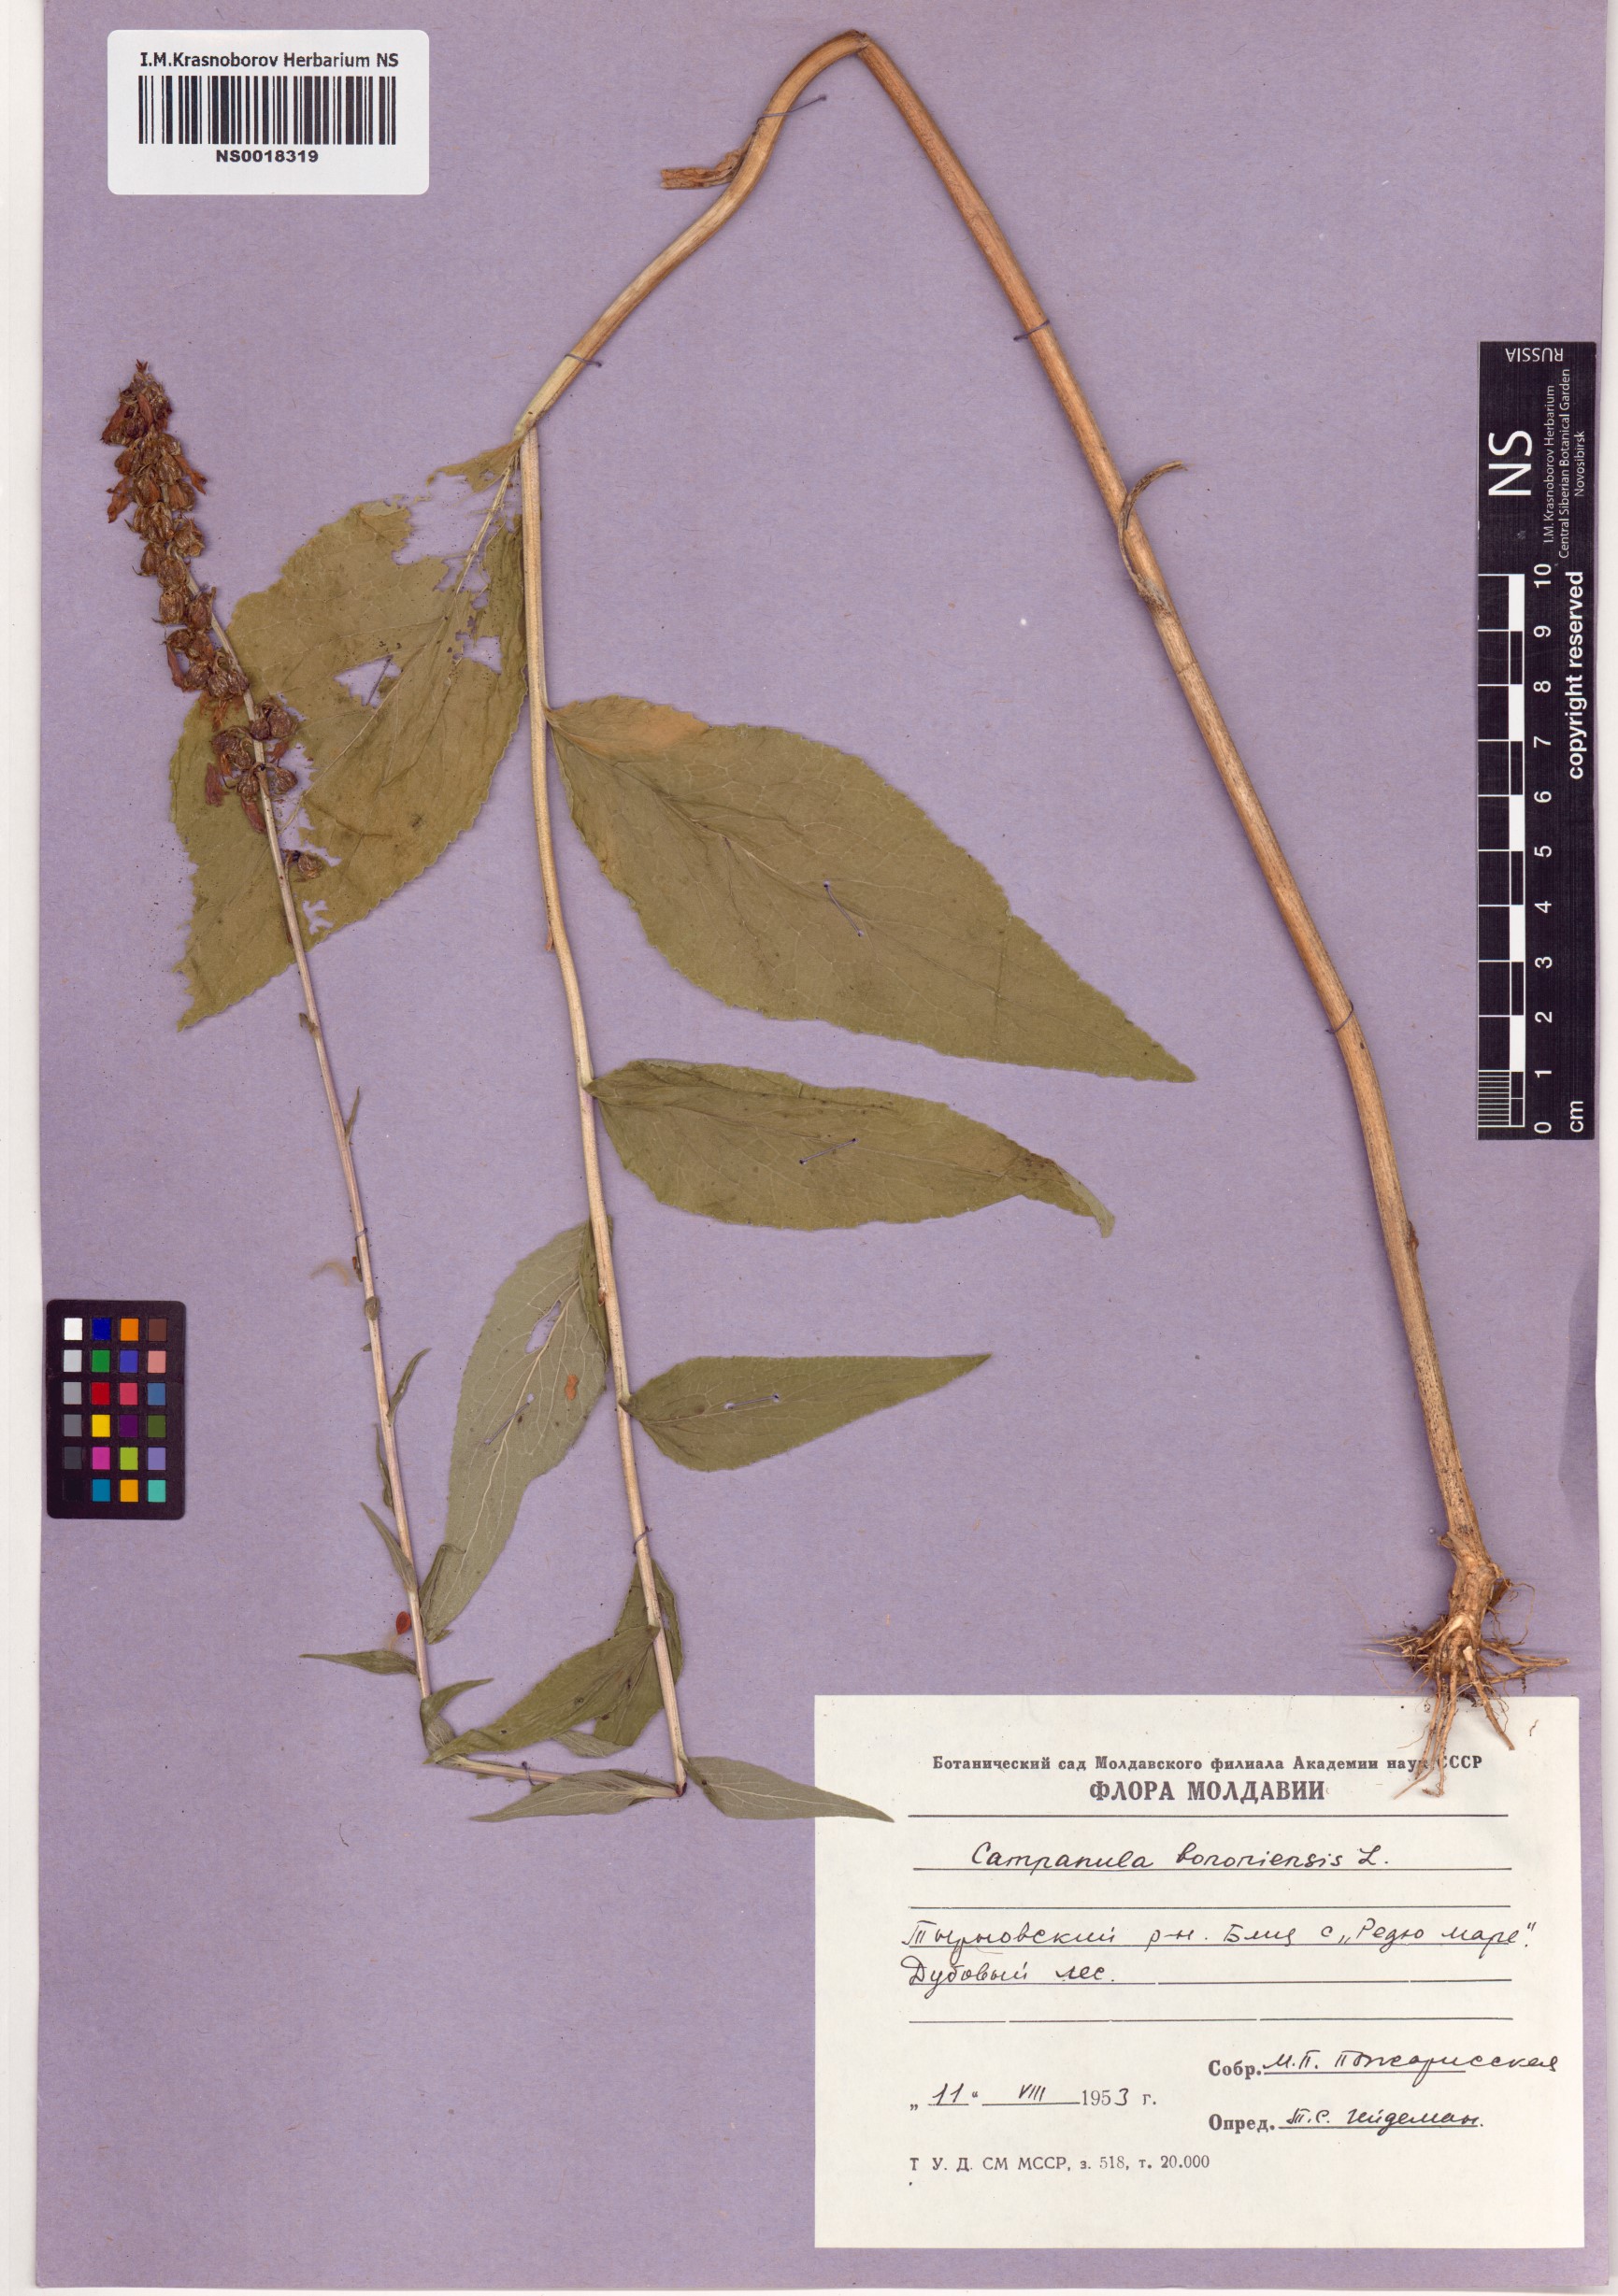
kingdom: Plantae
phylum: Tracheophyta
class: Magnoliopsida
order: Asterales
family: Campanulaceae
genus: Campanula
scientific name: Campanula bononiensis
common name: Pale bellflower
